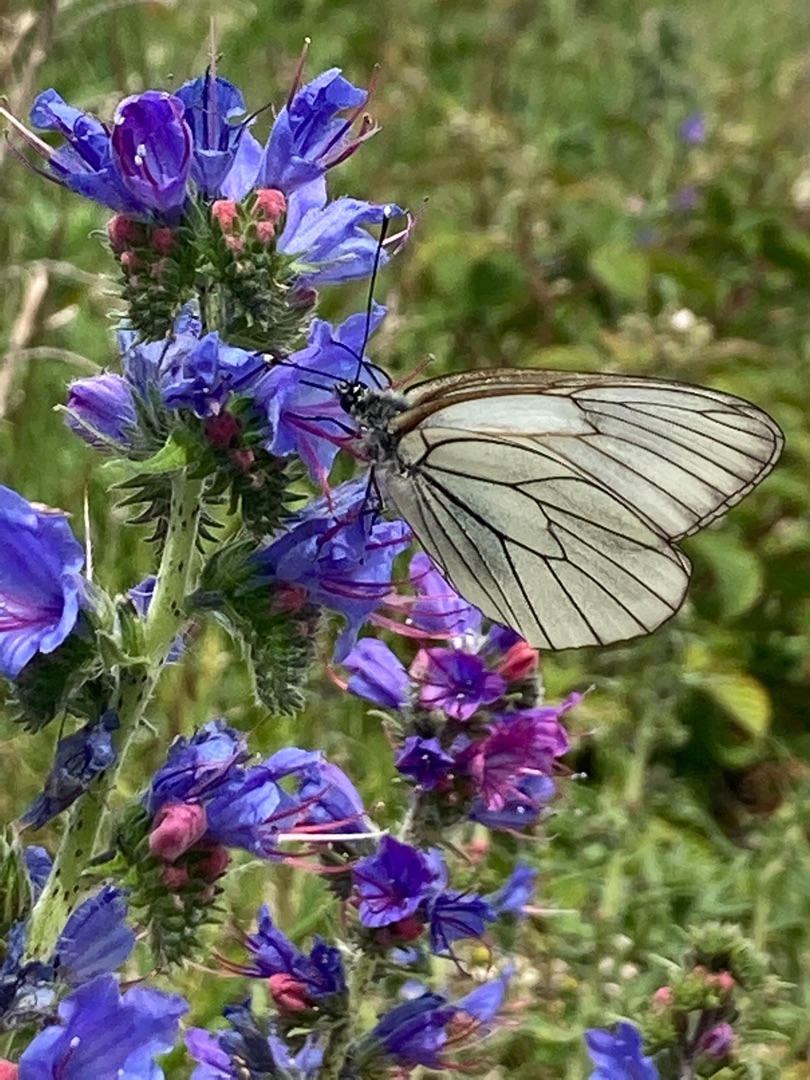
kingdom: Animalia
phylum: Arthropoda
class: Insecta
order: Lepidoptera
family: Pieridae
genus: Aporia
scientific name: Aporia crataegi
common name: Sortåret hvidvinge
